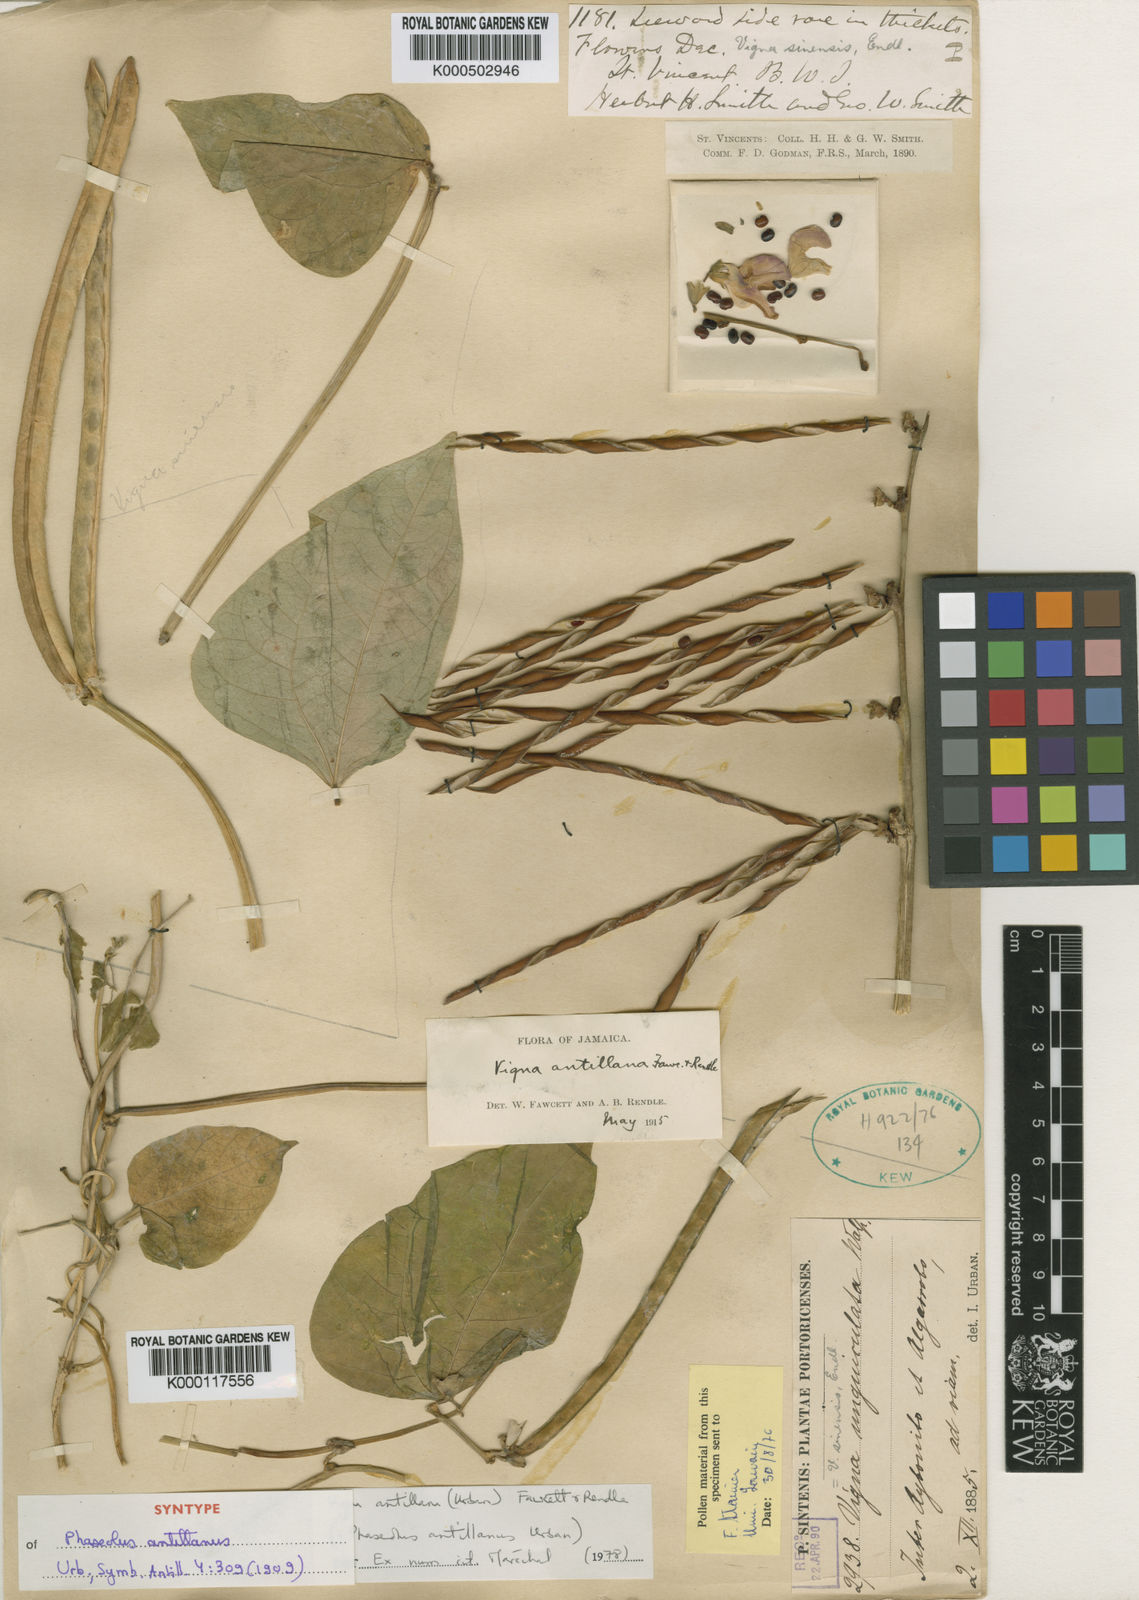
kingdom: Plantae
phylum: Tracheophyta
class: Magnoliopsida
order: Fabales
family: Fabaceae
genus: Sigmoidotropis
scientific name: Sigmoidotropis antillana
